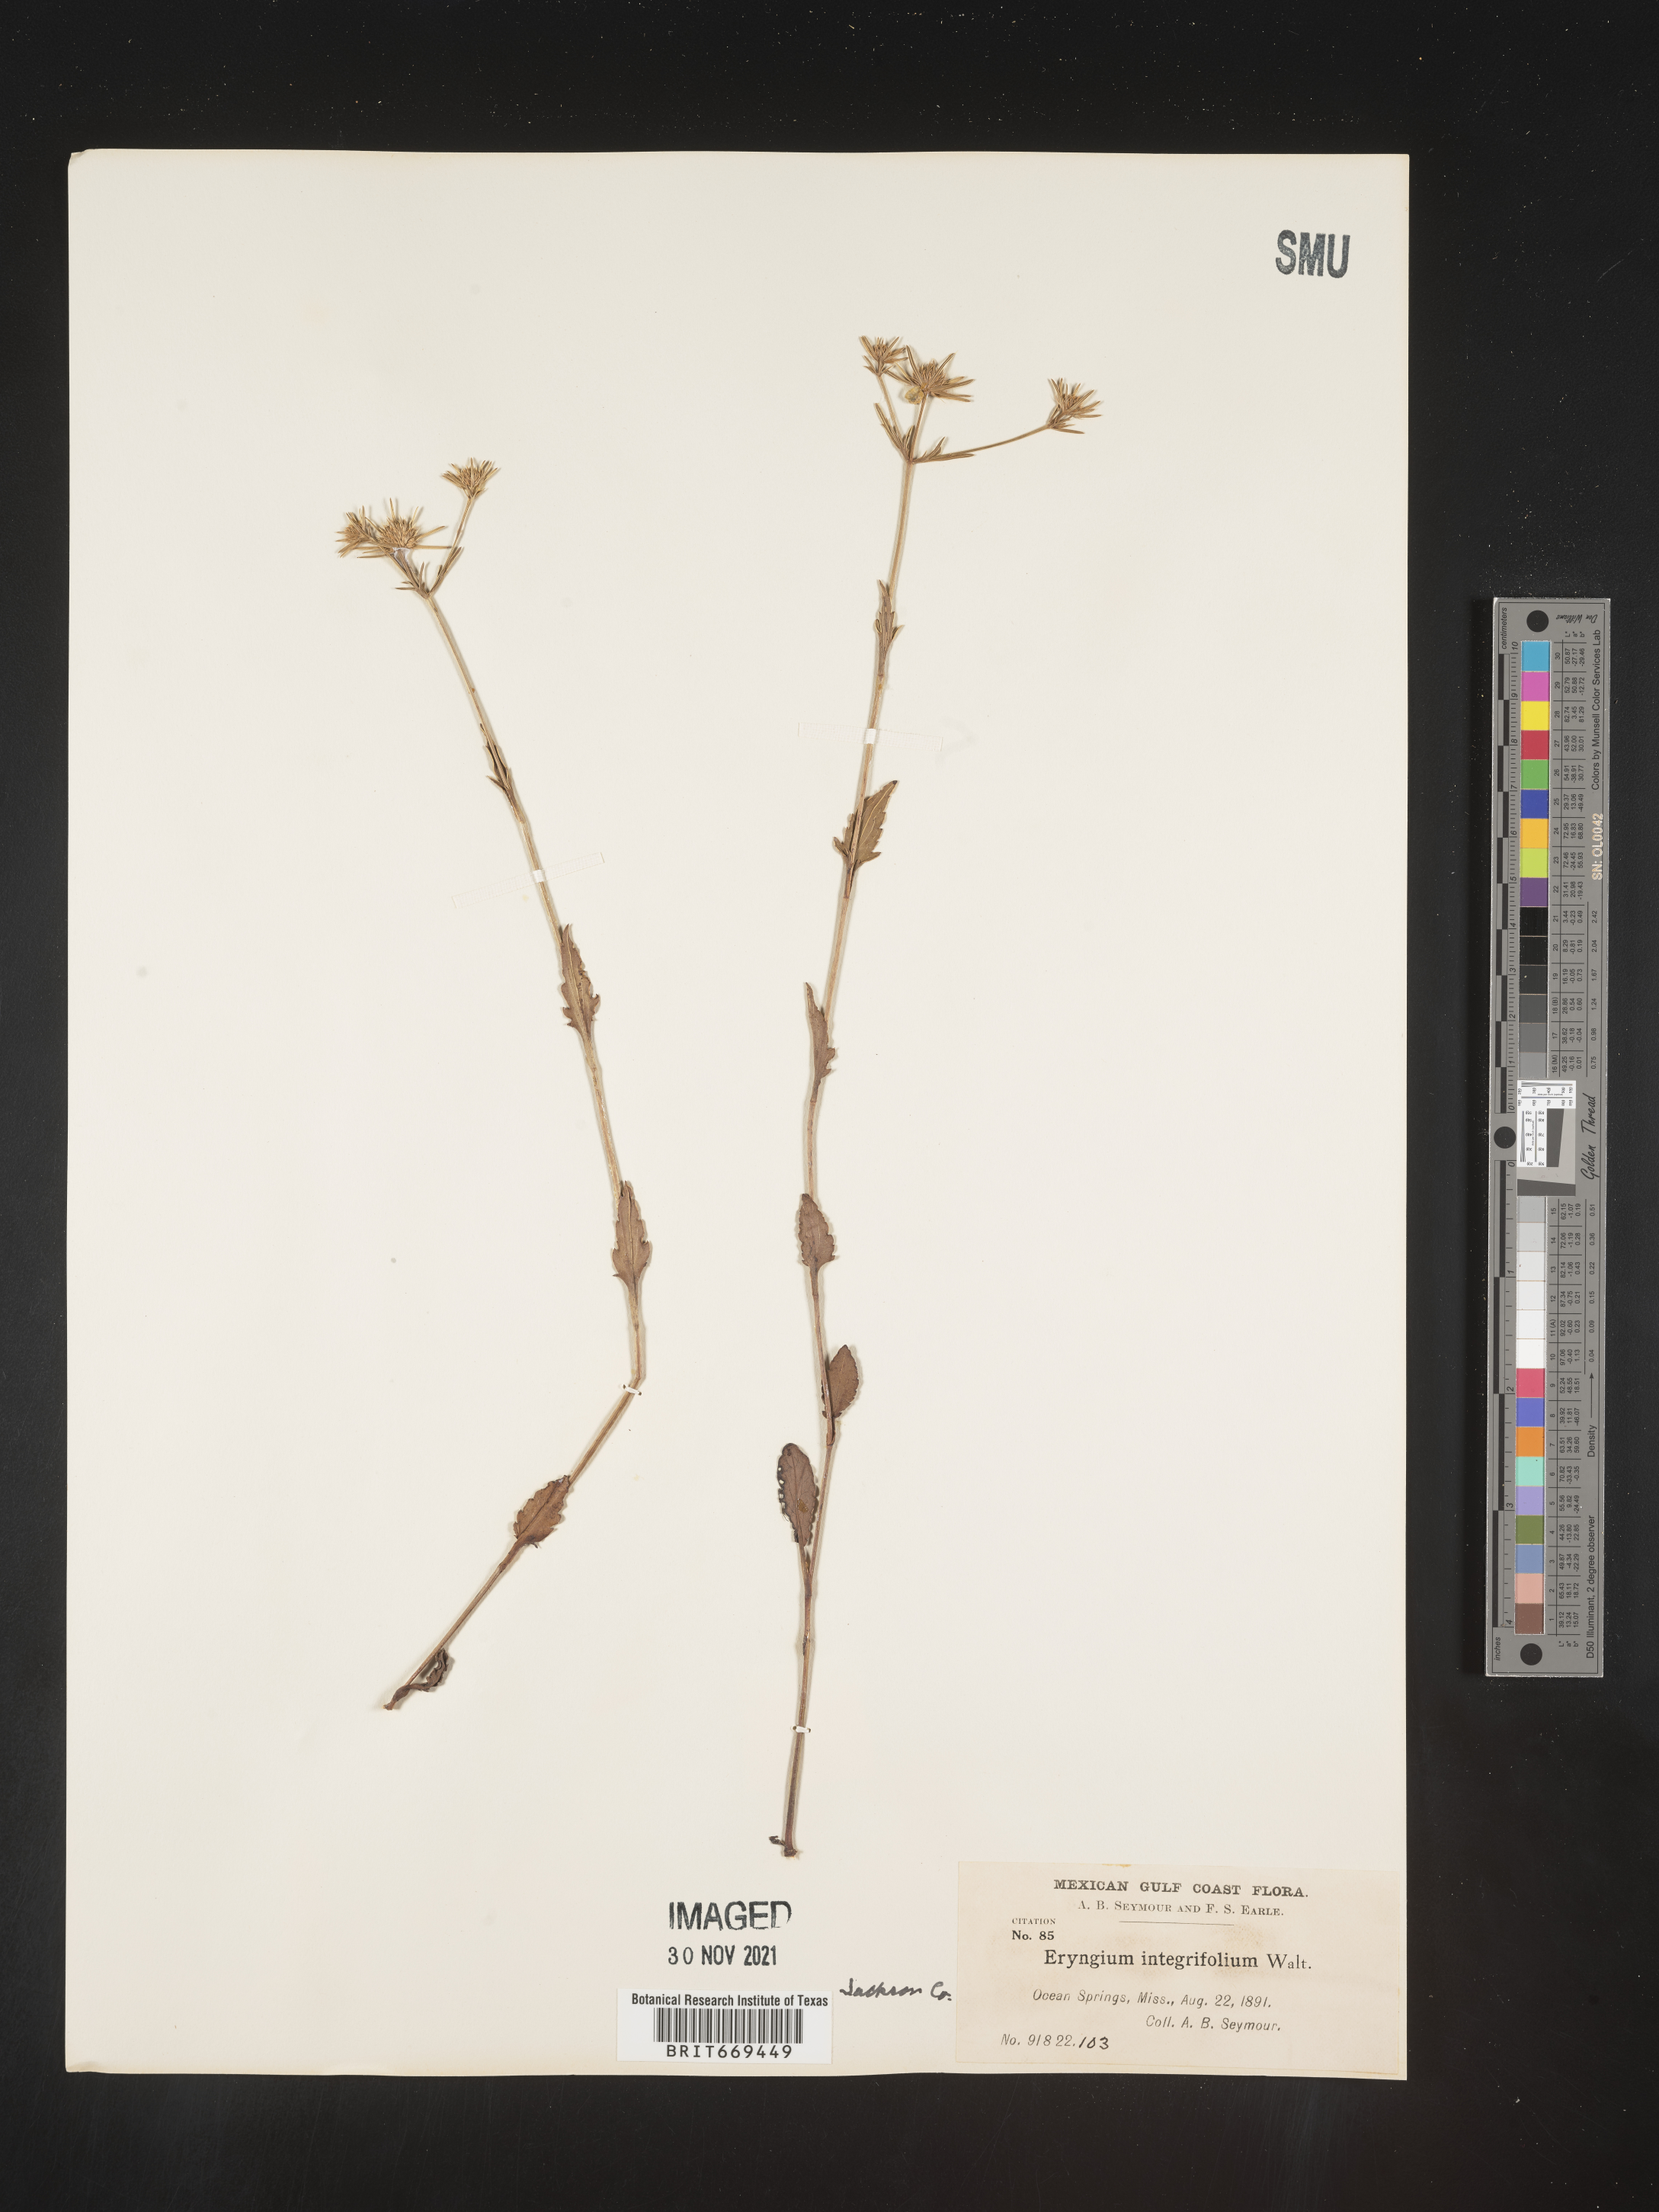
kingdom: Plantae
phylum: Tracheophyta
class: Magnoliopsida
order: Apiales
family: Apiaceae
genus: Eryngium
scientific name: Eryngium integrifolium
